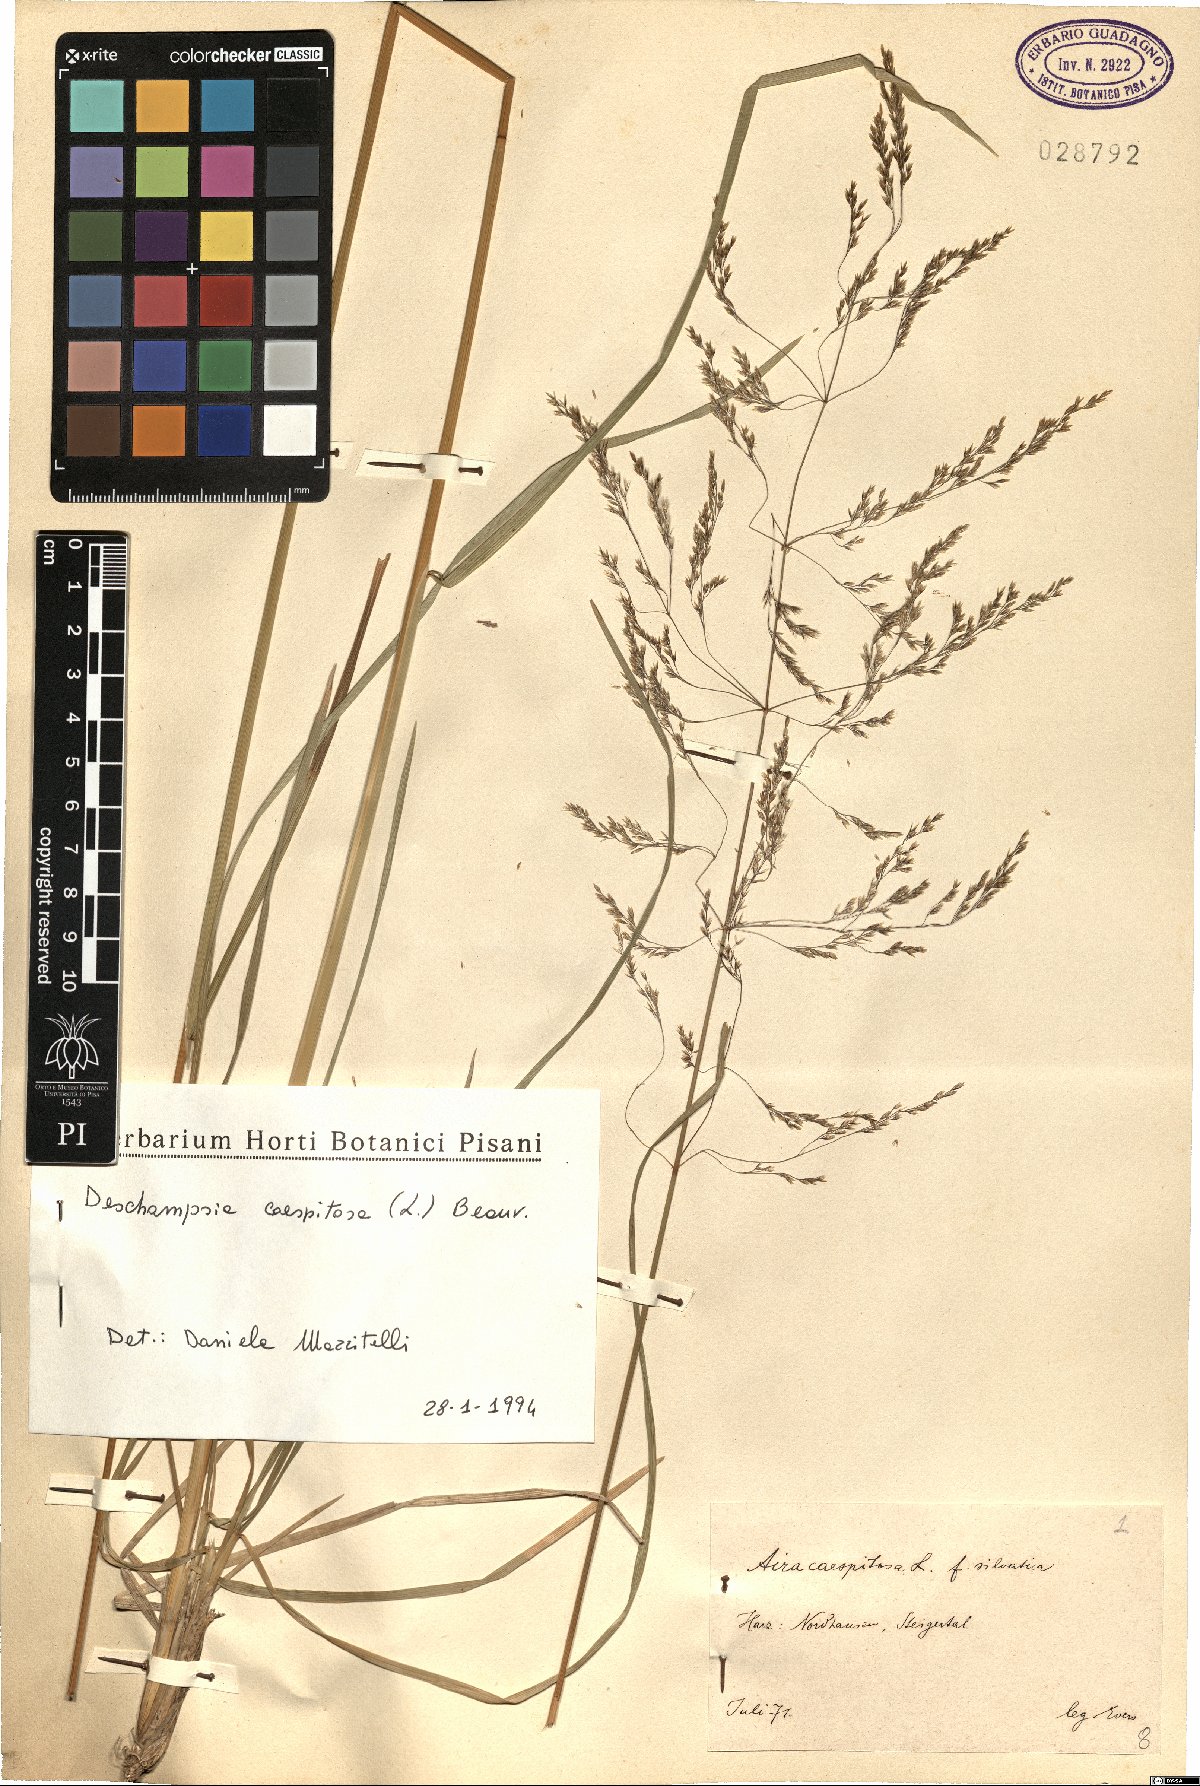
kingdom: Plantae
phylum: Tracheophyta
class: Liliopsida
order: Poales
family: Poaceae
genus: Deschampsia
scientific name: Deschampsia cespitosa
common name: Tufted hair-grass
